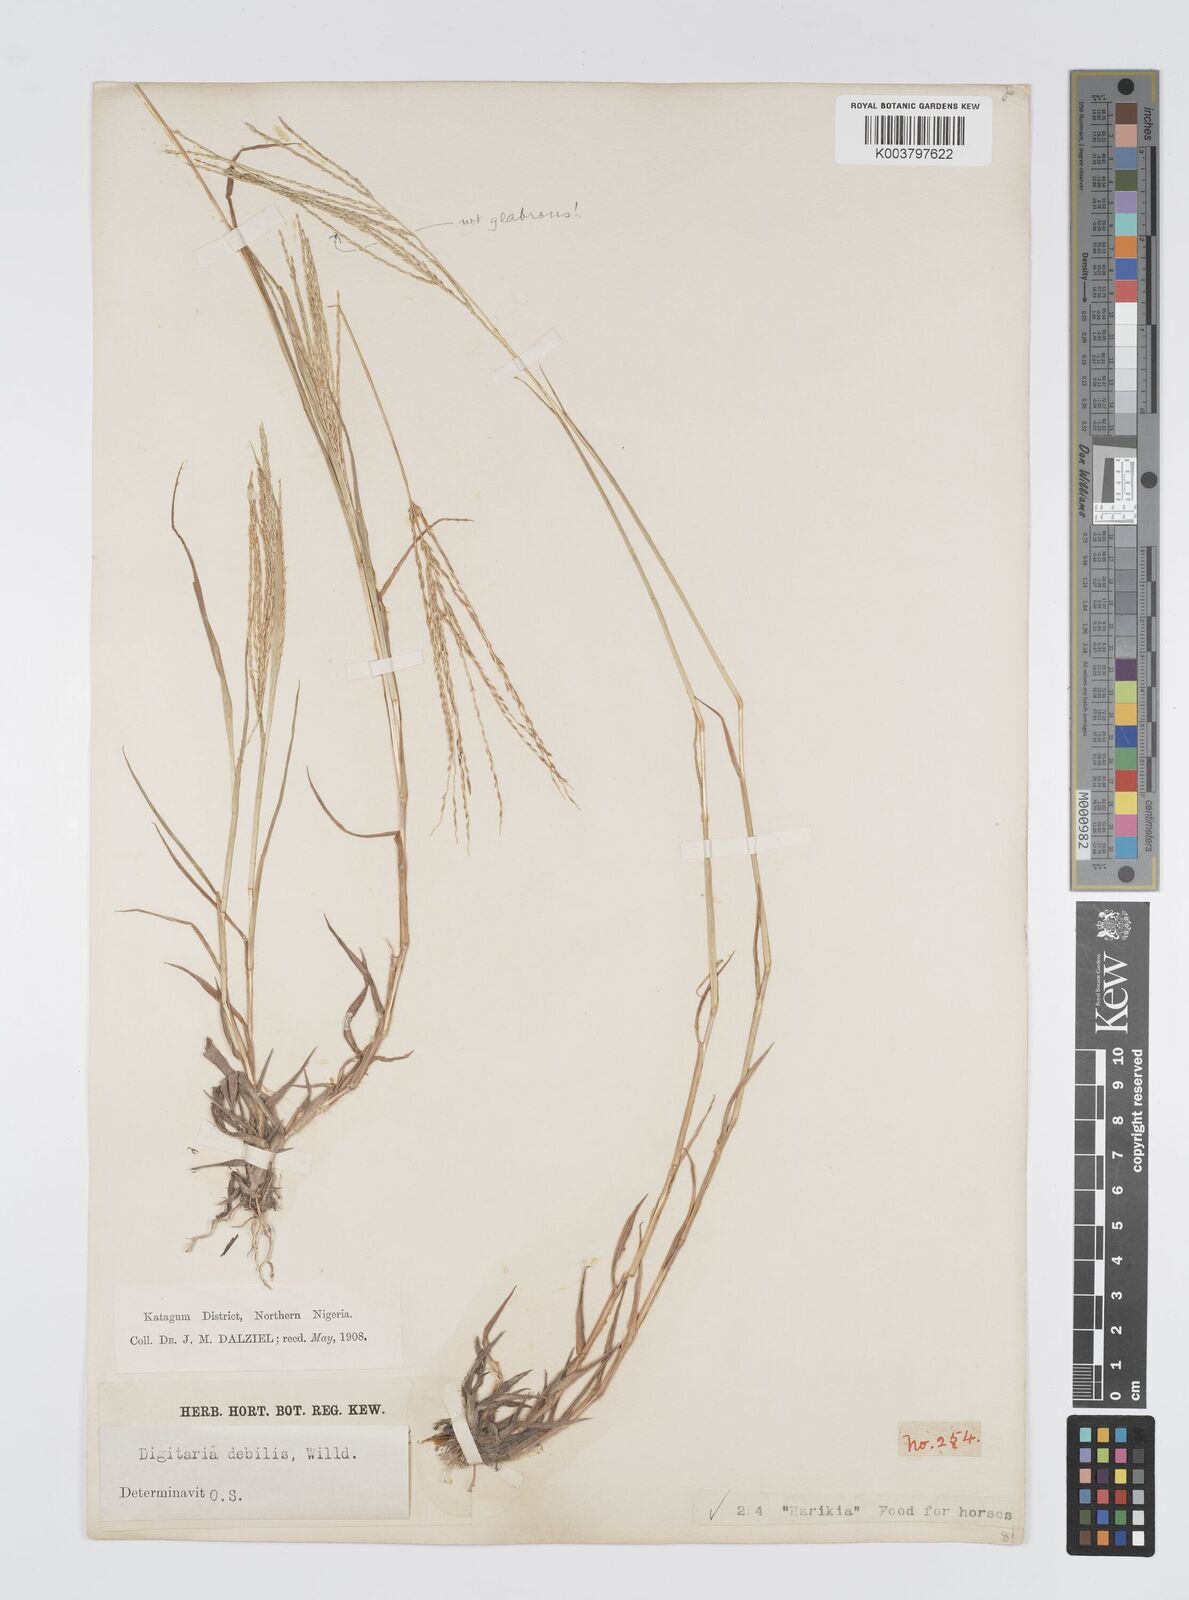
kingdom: Plantae
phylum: Tracheophyta
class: Liliopsida
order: Poales
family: Poaceae
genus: Digitaria
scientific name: Digitaria debilis
